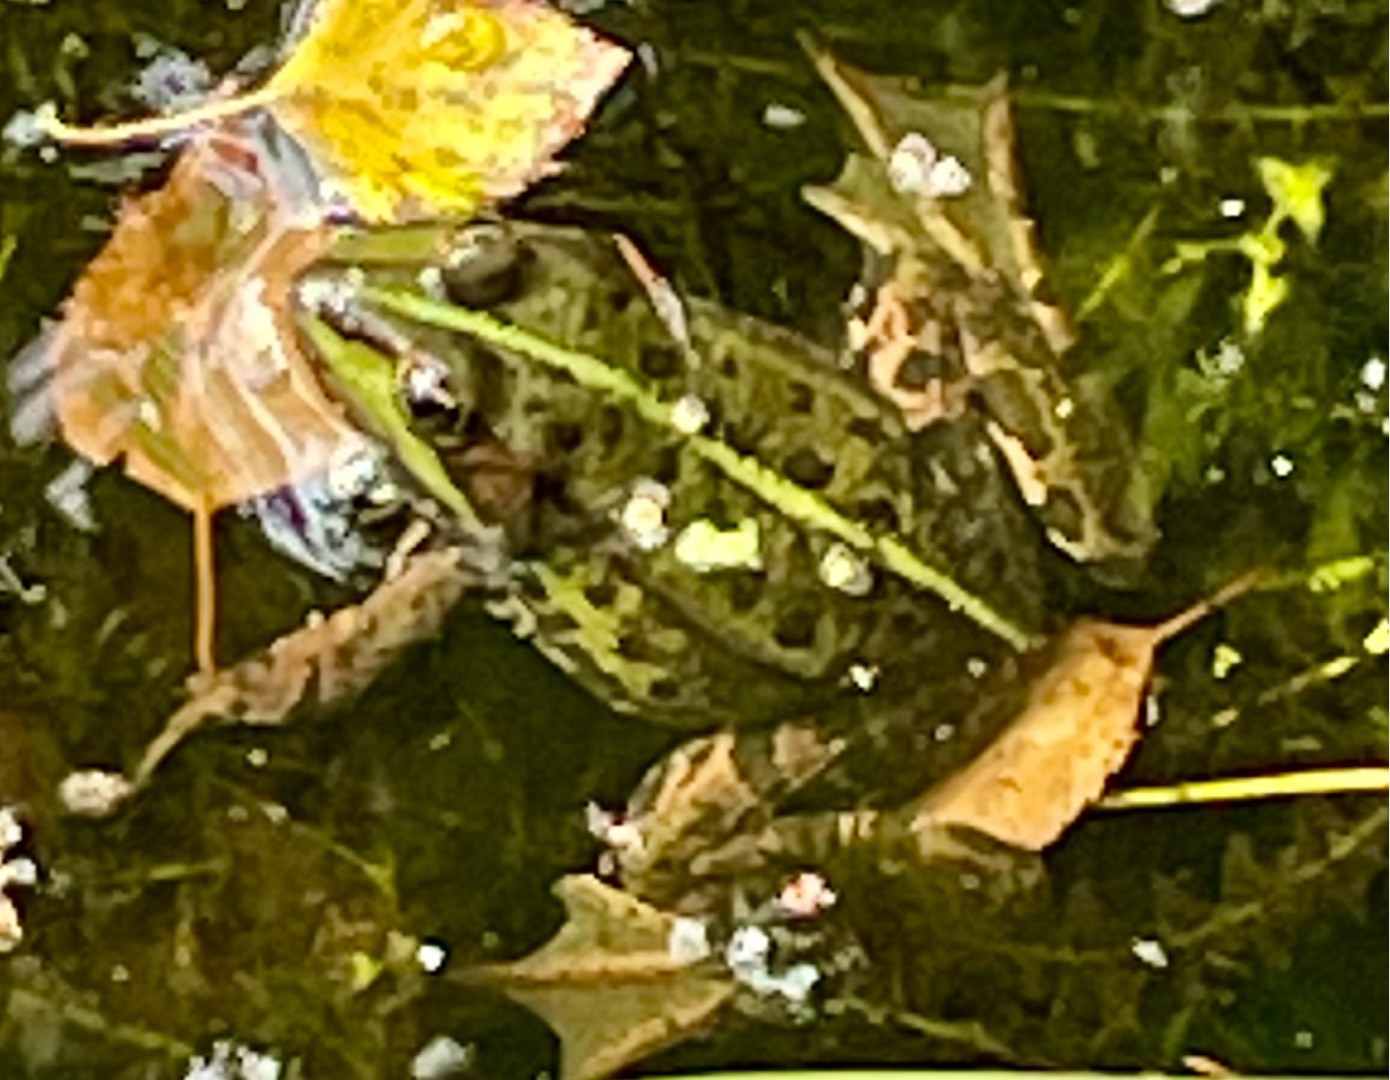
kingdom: Animalia
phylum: Chordata
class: Amphibia
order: Anura
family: Ranidae
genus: Pelophylax
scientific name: Pelophylax lessonae
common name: Grøn frø
